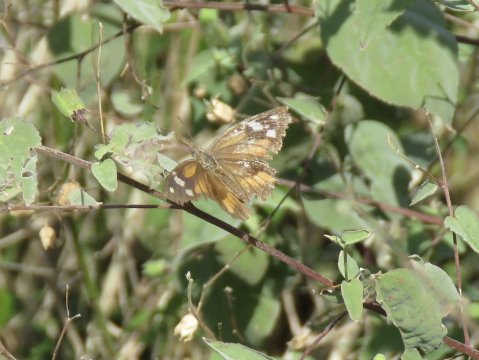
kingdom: Animalia
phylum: Arthropoda
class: Insecta
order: Lepidoptera
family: Nymphalidae
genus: Libytheana
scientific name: Libytheana carinenta
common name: American Snout
